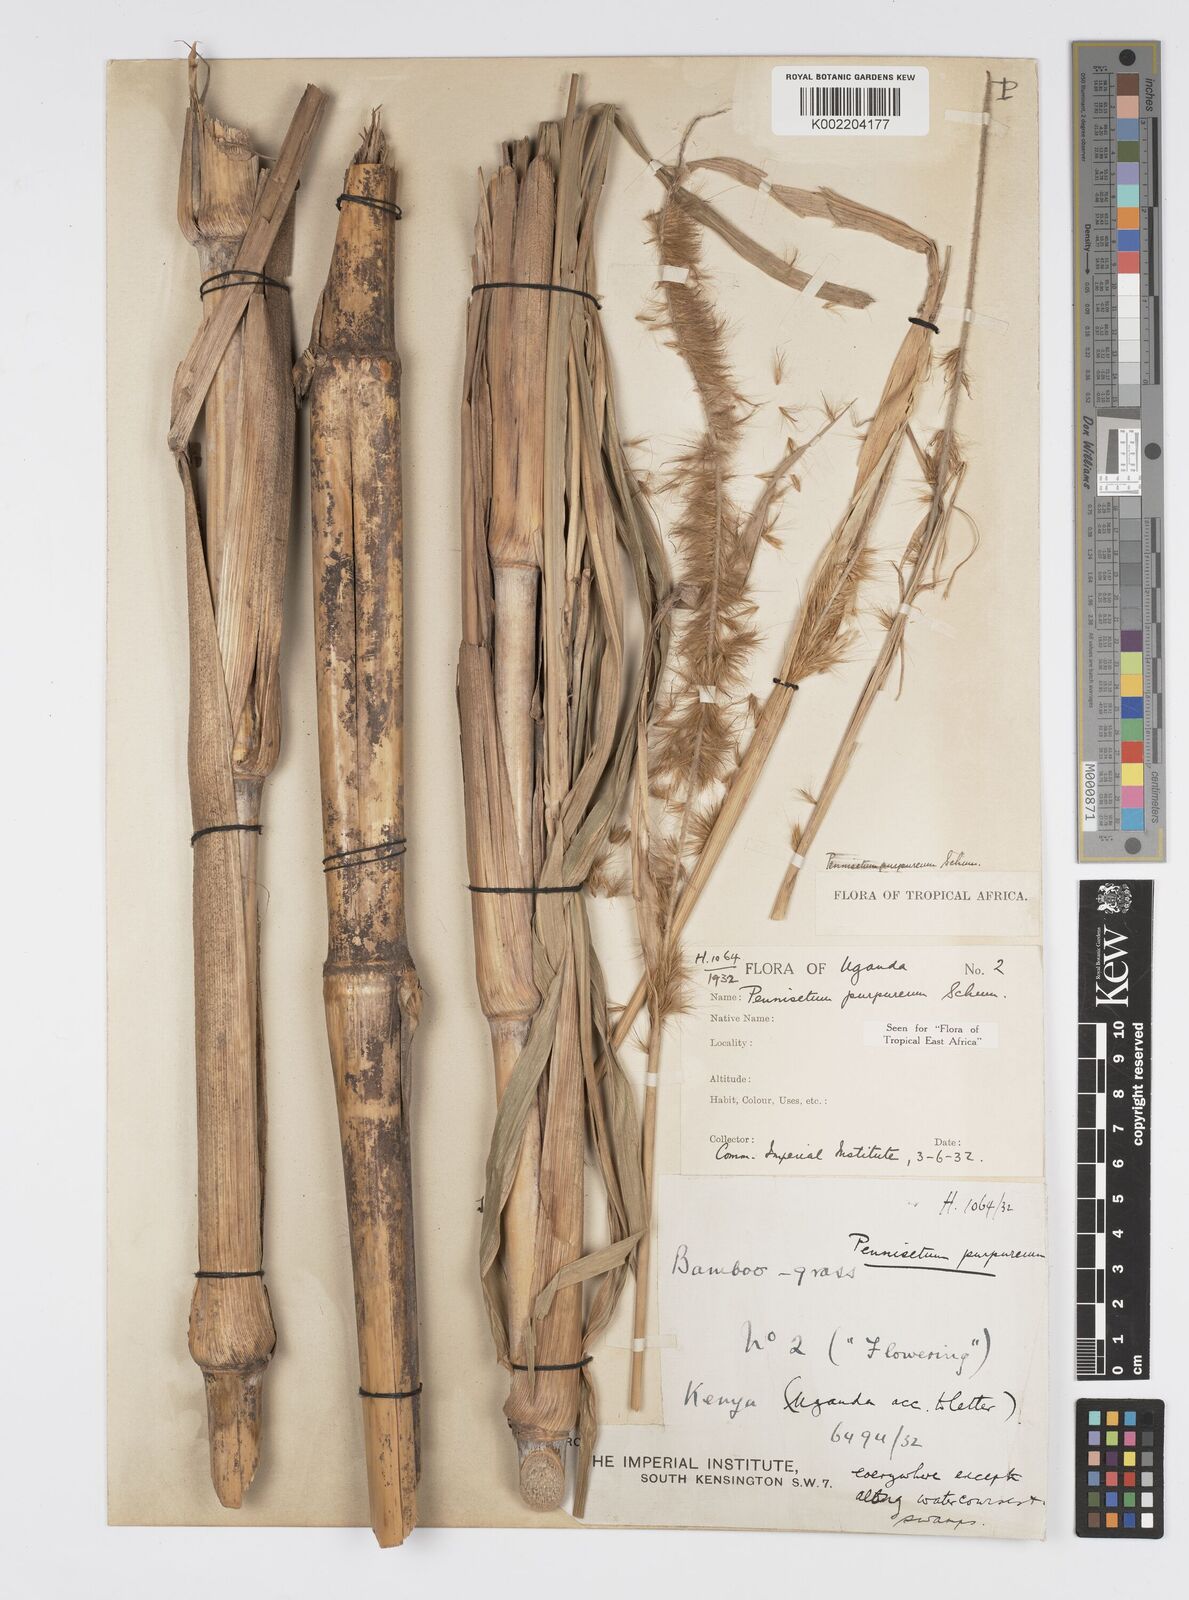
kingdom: Plantae
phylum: Tracheophyta
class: Liliopsida
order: Poales
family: Poaceae
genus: Cenchrus
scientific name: Cenchrus purpureus
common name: Elephant grass
